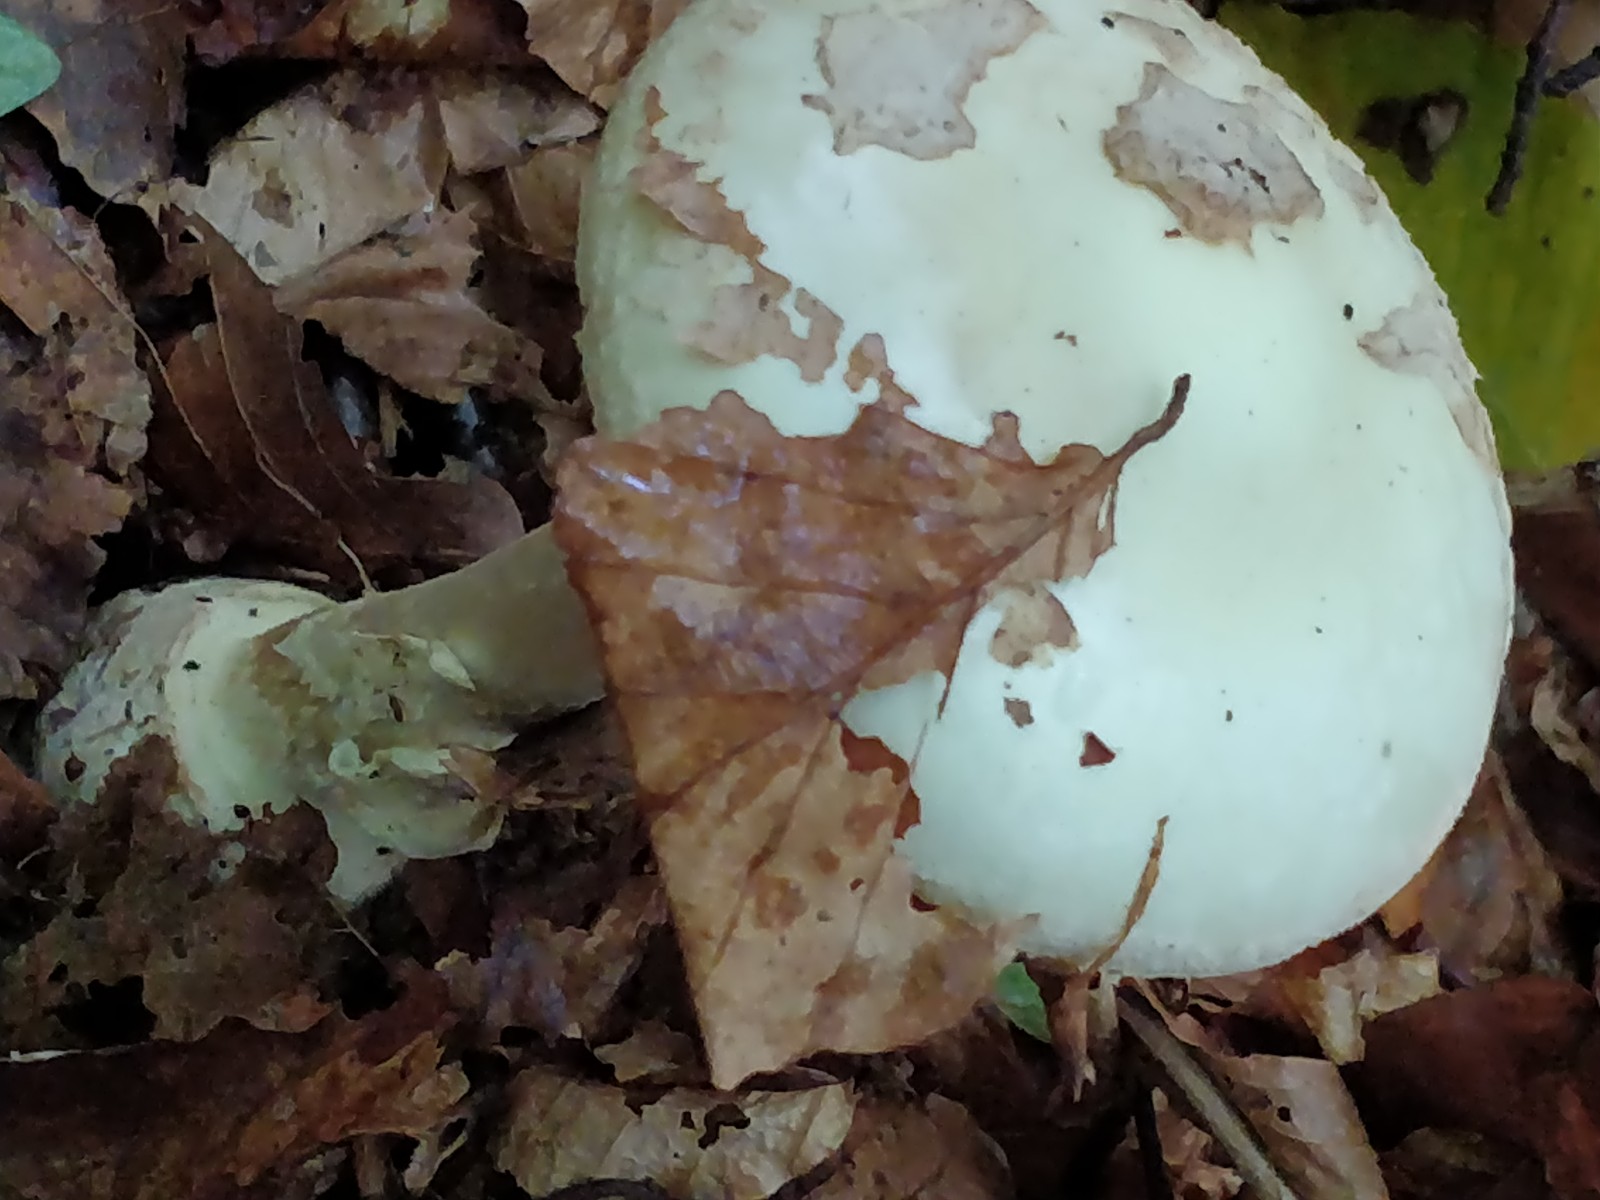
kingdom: Fungi
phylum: Basidiomycota
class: Agaricomycetes
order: Agaricales
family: Amanitaceae
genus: Amanita
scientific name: Amanita citrina
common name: False death-cap
